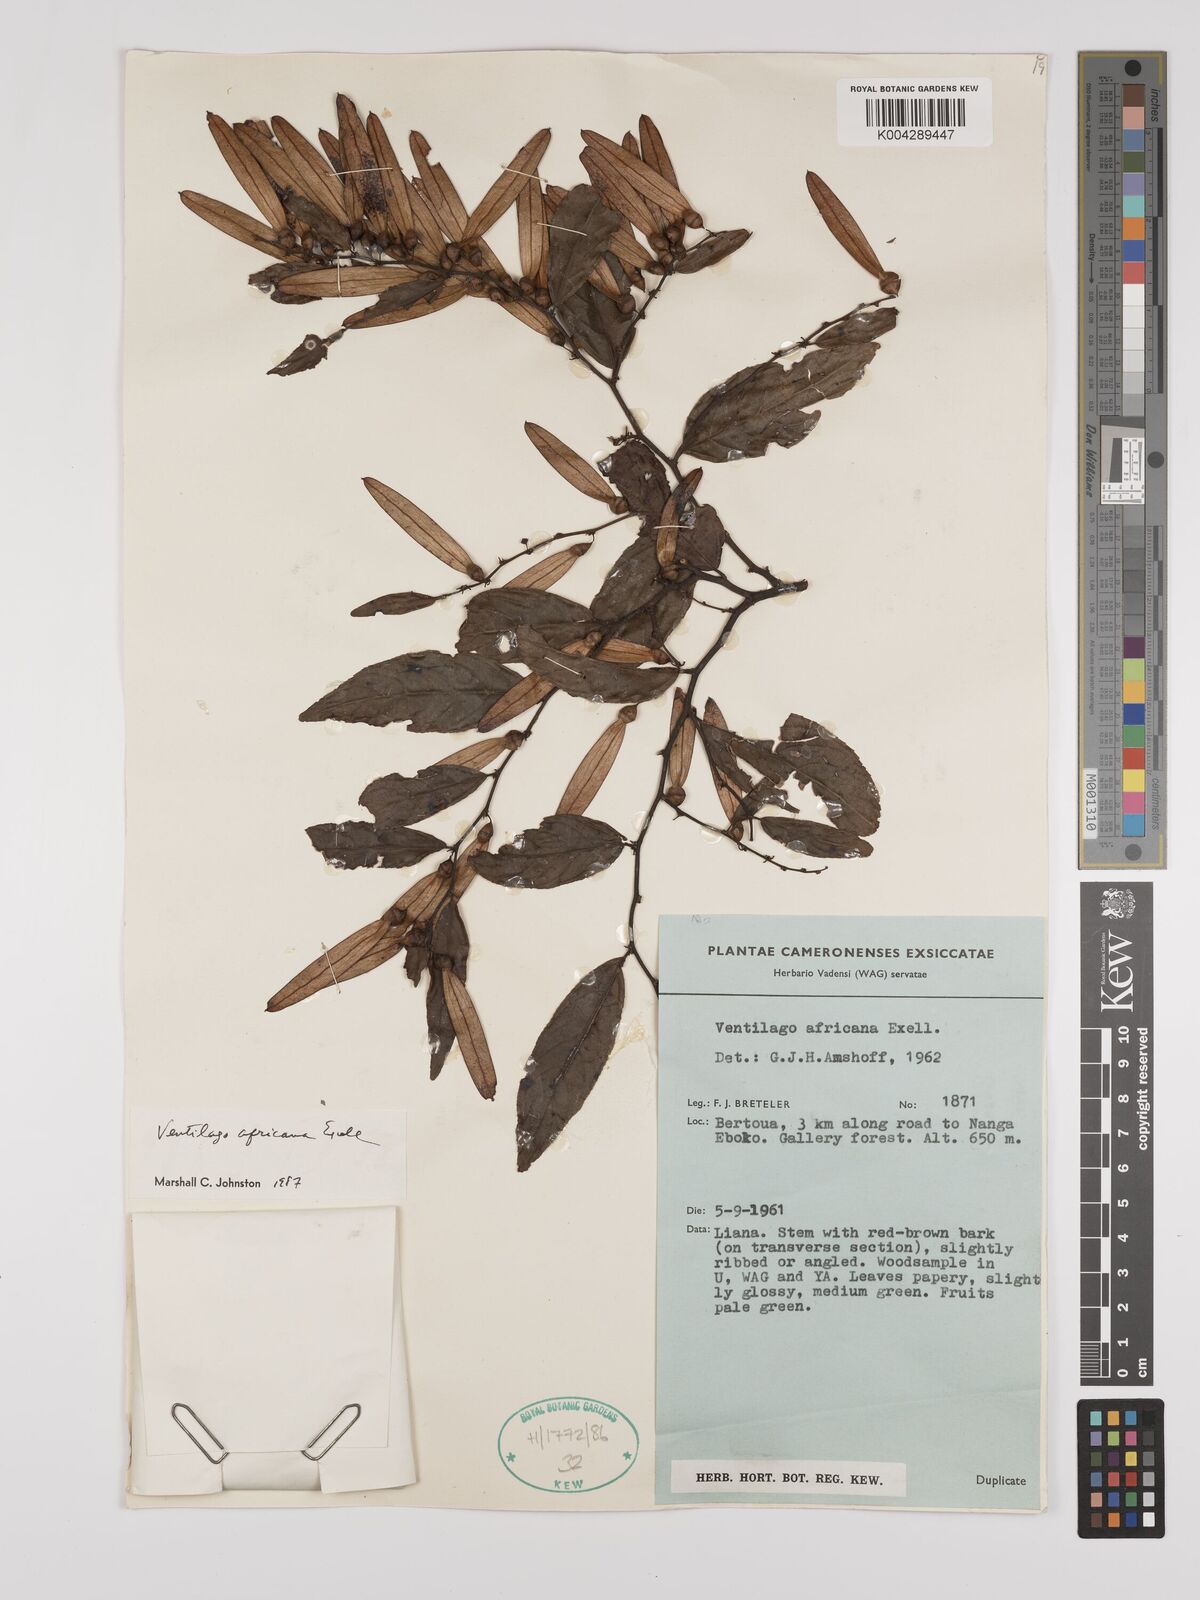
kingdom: Plantae
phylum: Tracheophyta
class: Magnoliopsida
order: Rosales
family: Rhamnaceae
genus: Ventilago
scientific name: Ventilago africana
